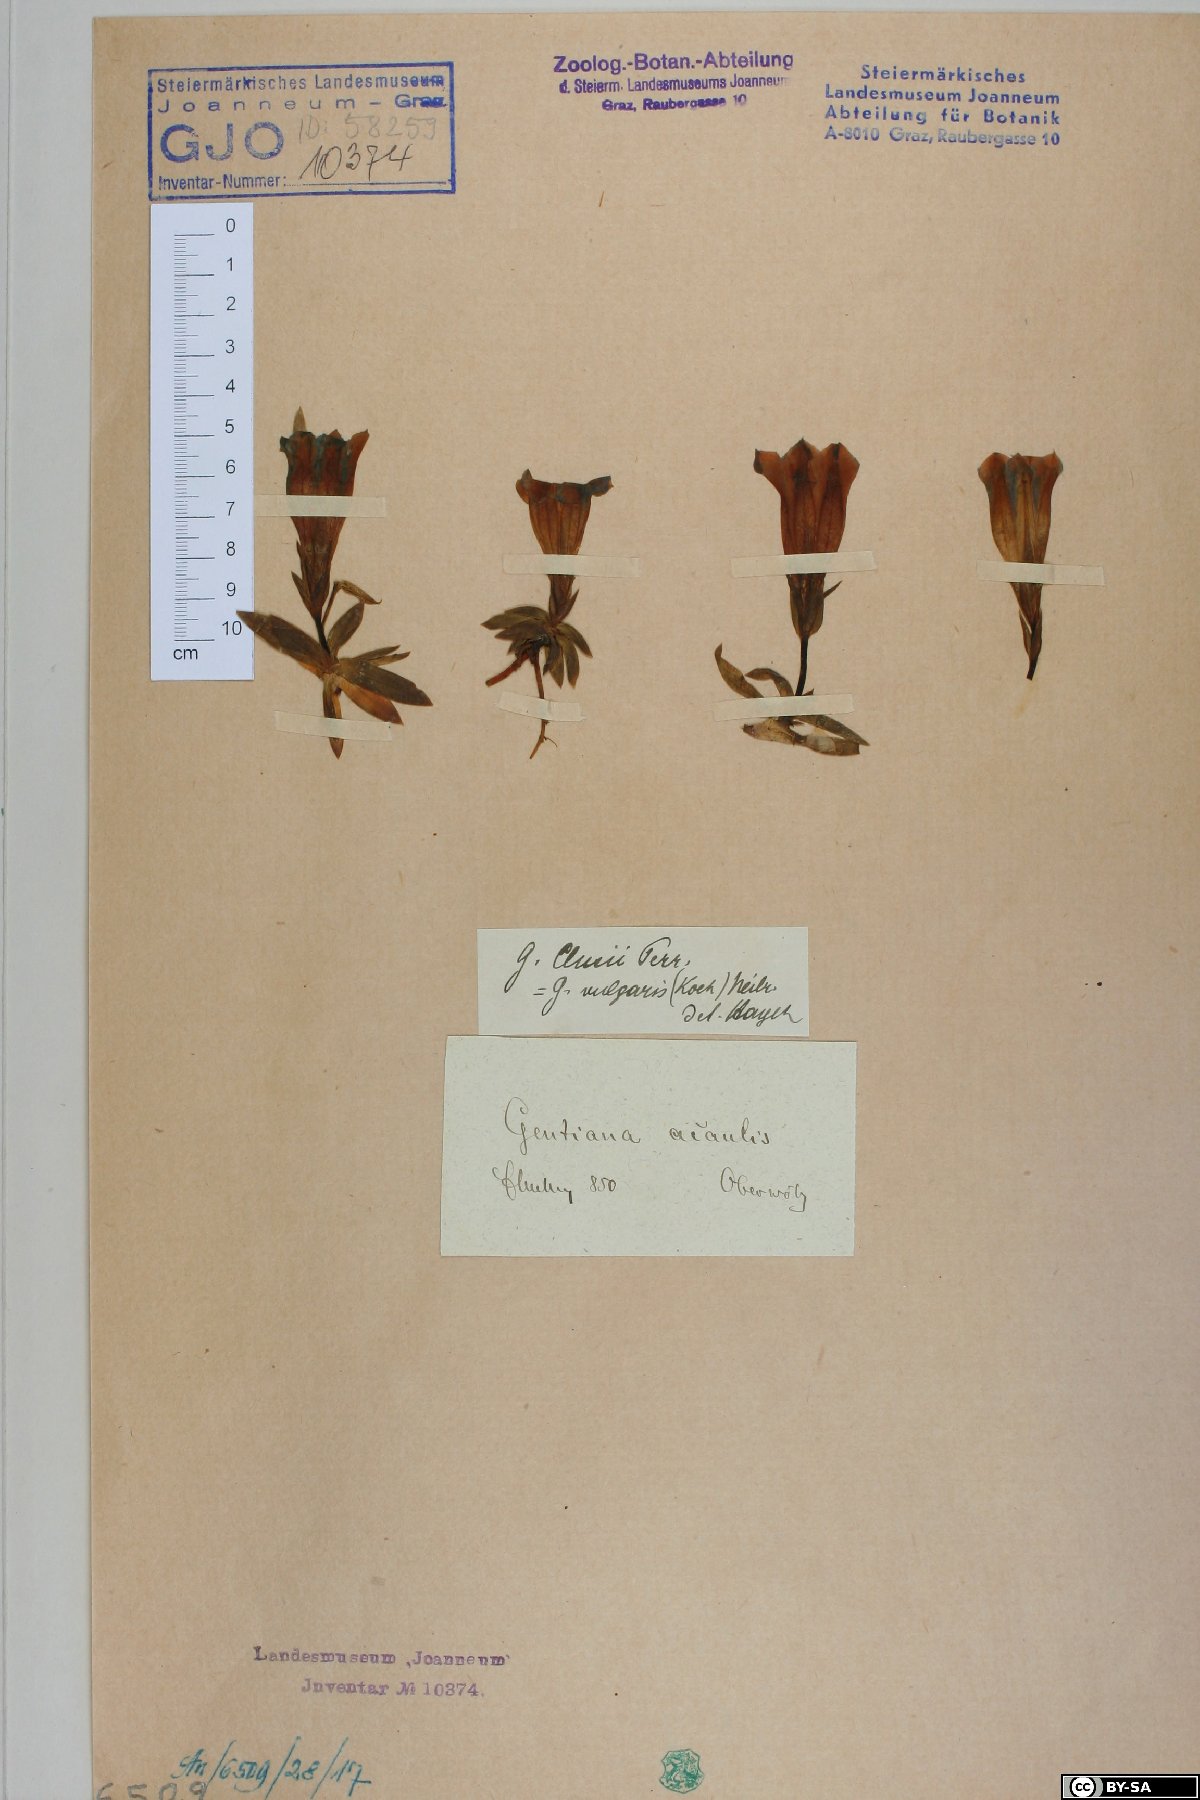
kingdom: Plantae
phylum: Tracheophyta
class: Magnoliopsida
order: Gentianales
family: Gentianaceae
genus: Gentiana
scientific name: Gentiana clusii
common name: Trumpet gentian
